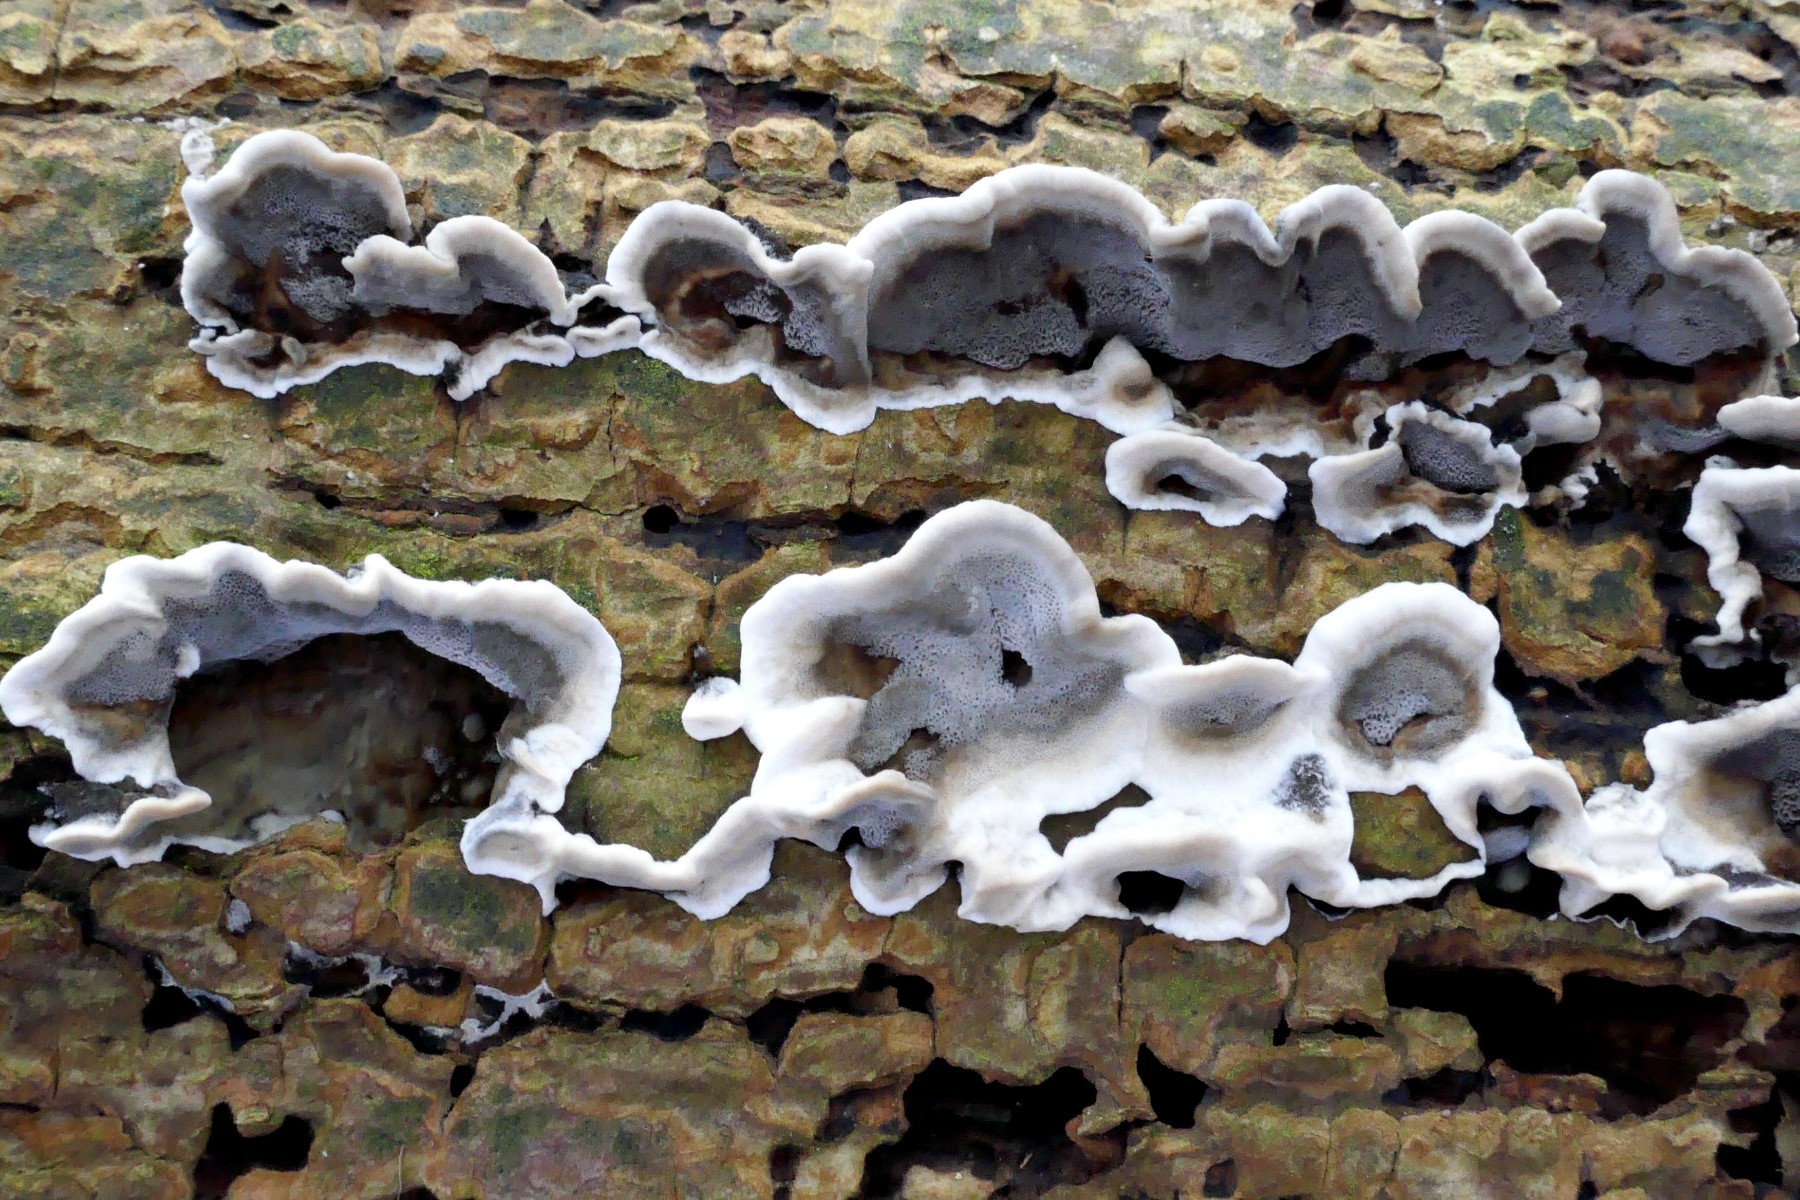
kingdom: Fungi
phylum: Basidiomycota
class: Agaricomycetes
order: Polyporales
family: Phanerochaetaceae
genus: Bjerkandera
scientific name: Bjerkandera adusta
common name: sveden sodporesvamp
